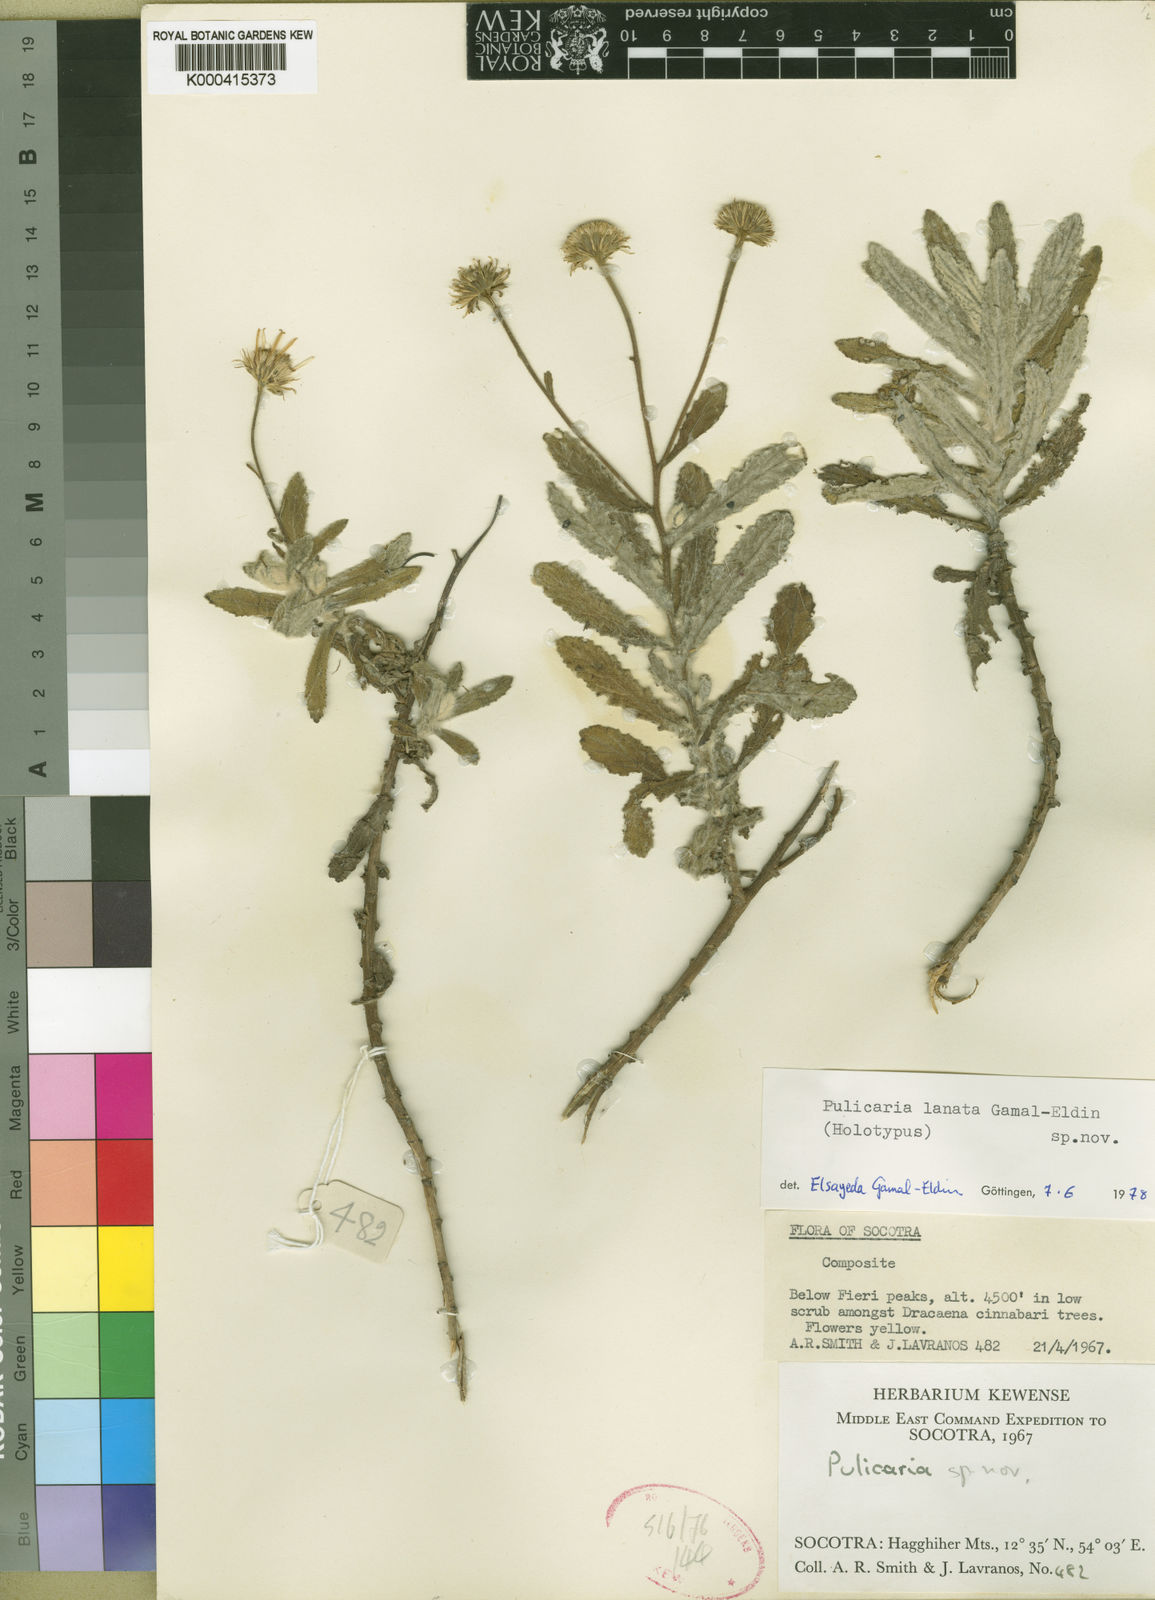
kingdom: Plantae
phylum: Tracheophyta
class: Magnoliopsida
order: Asterales
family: Asteraceae
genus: Pulicaria
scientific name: Pulicaria lanata
